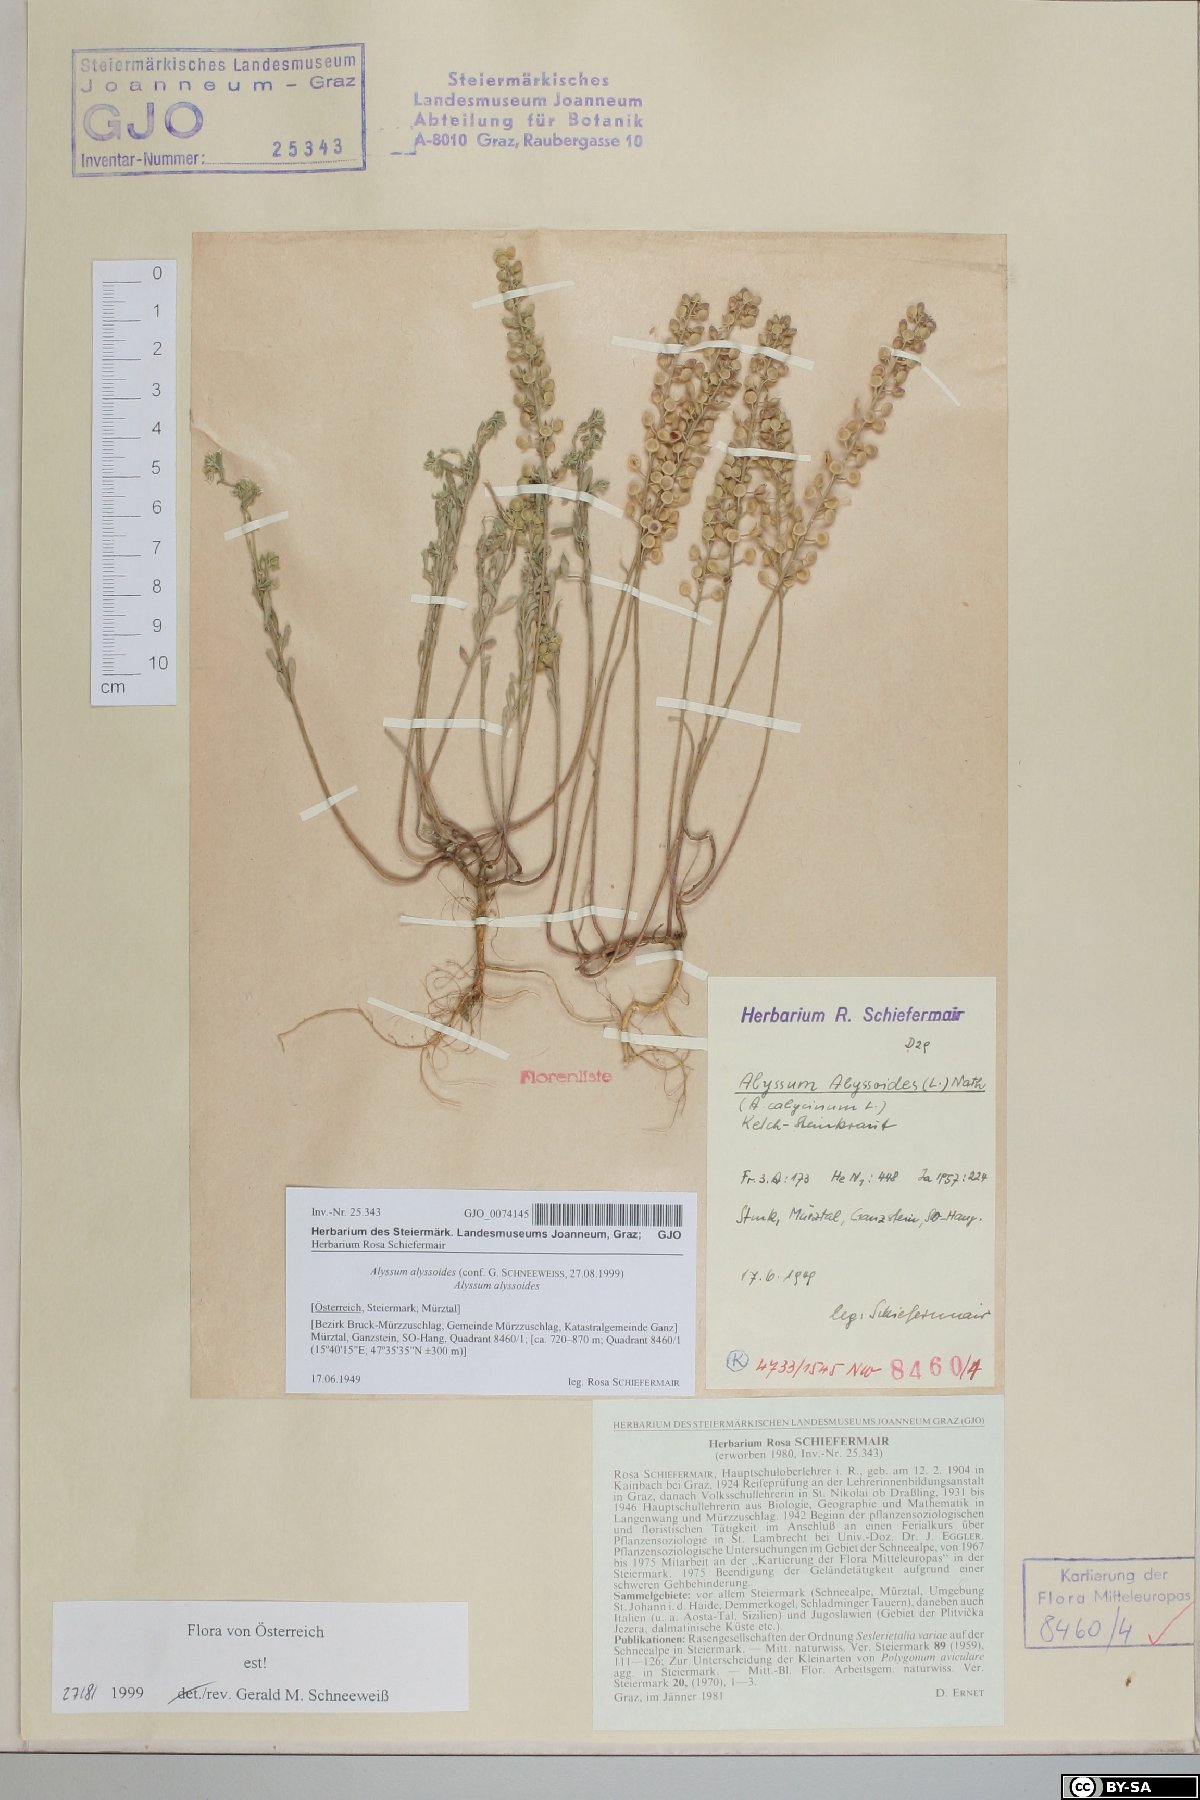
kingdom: Plantae
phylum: Tracheophyta
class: Magnoliopsida
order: Brassicales
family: Brassicaceae
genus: Alyssum
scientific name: Alyssum alyssoides
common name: Small alison
